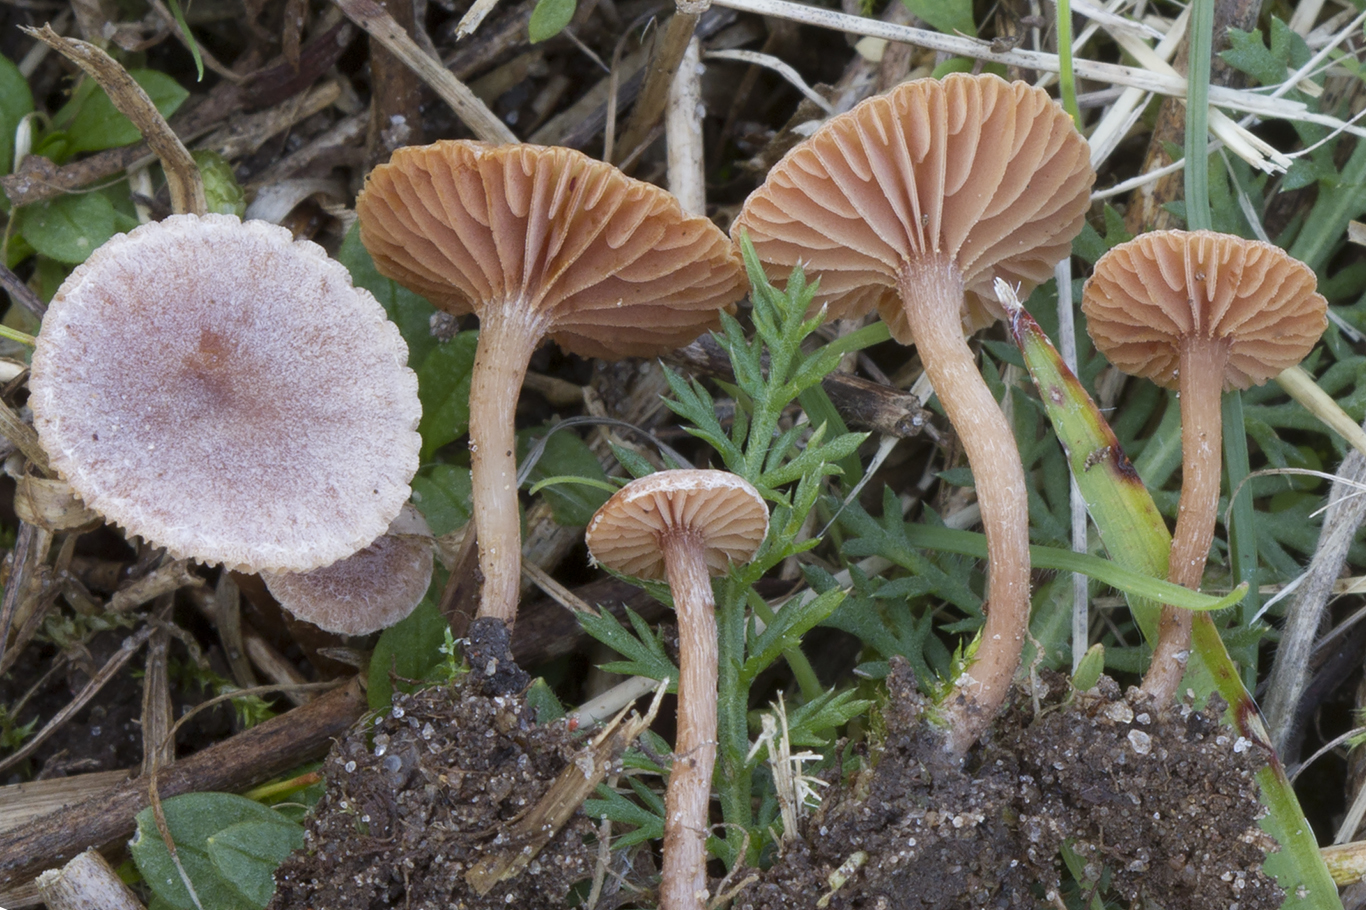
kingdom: Fungi
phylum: Basidiomycota
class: Agaricomycetes
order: Agaricales
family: Tubariaceae
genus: Tubaria
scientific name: Tubaria albostipitata
